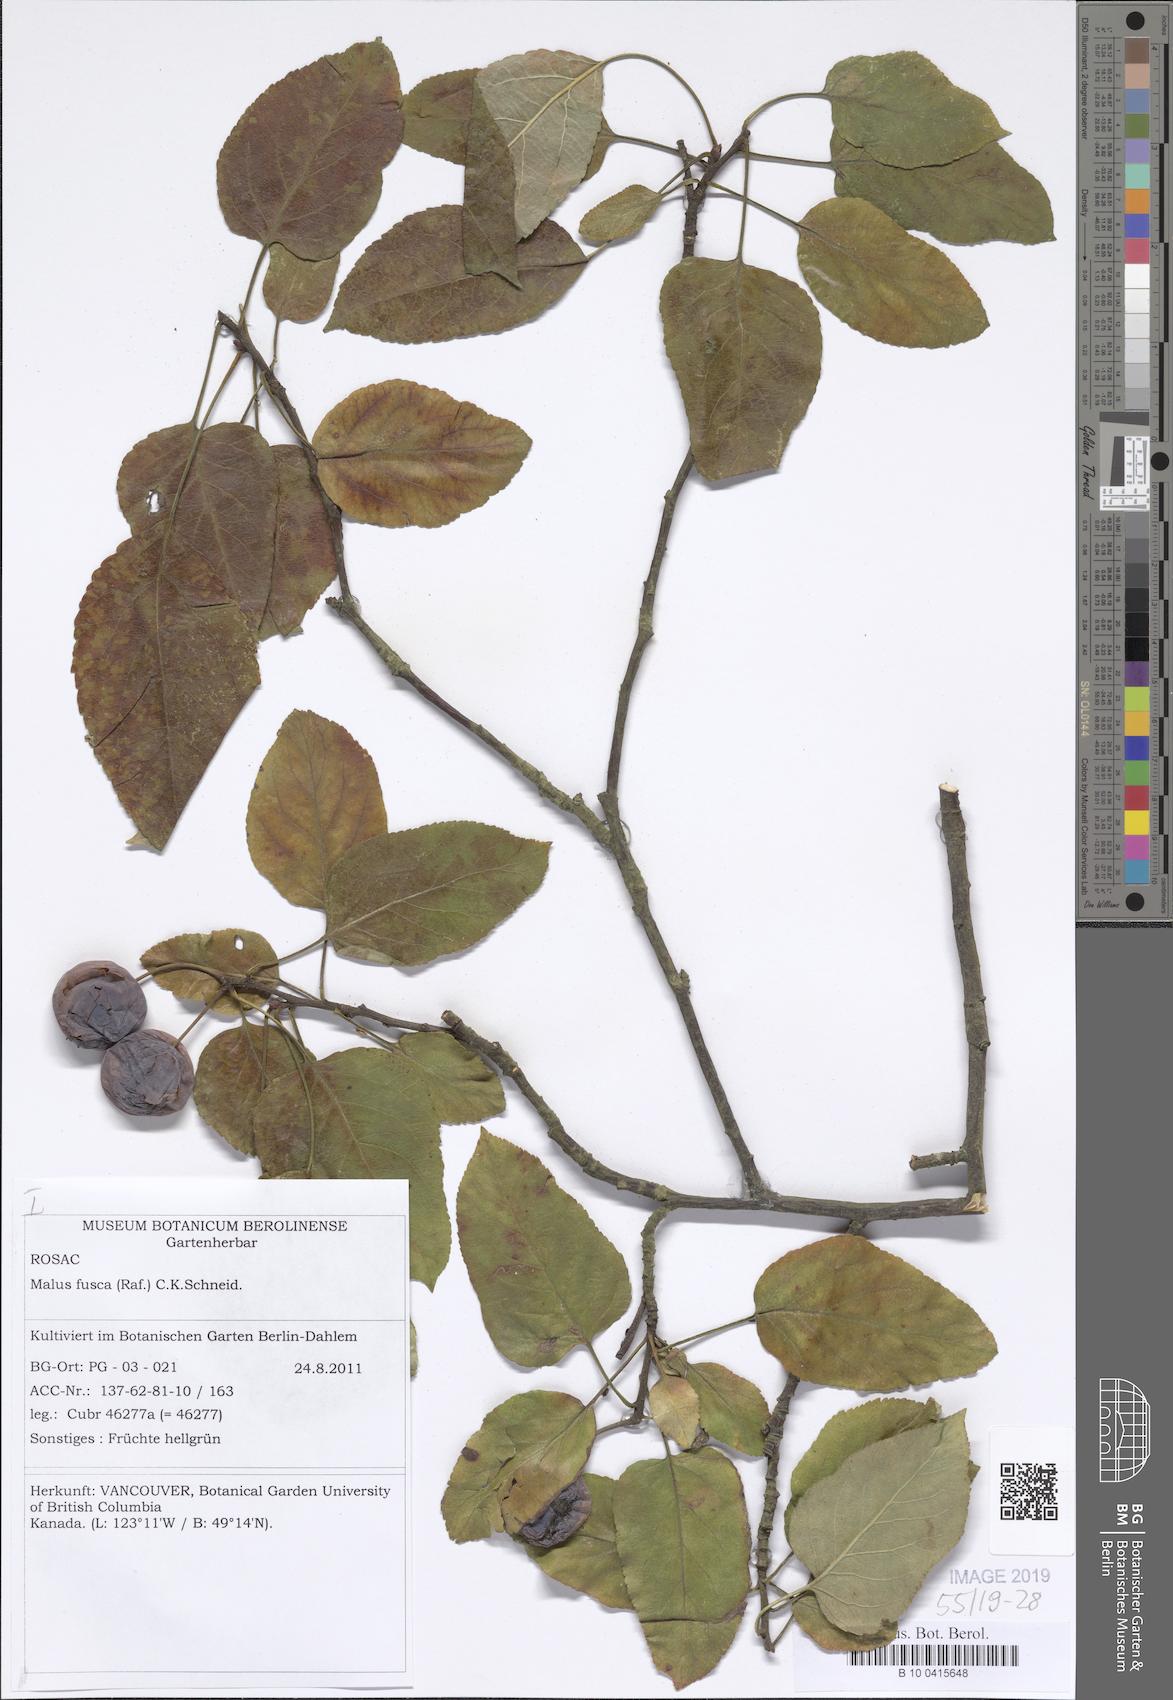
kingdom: Plantae
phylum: Tracheophyta
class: Magnoliopsida
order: Rosales
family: Rosaceae
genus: Malus
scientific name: Malus fusca
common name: Oregon crab apple
